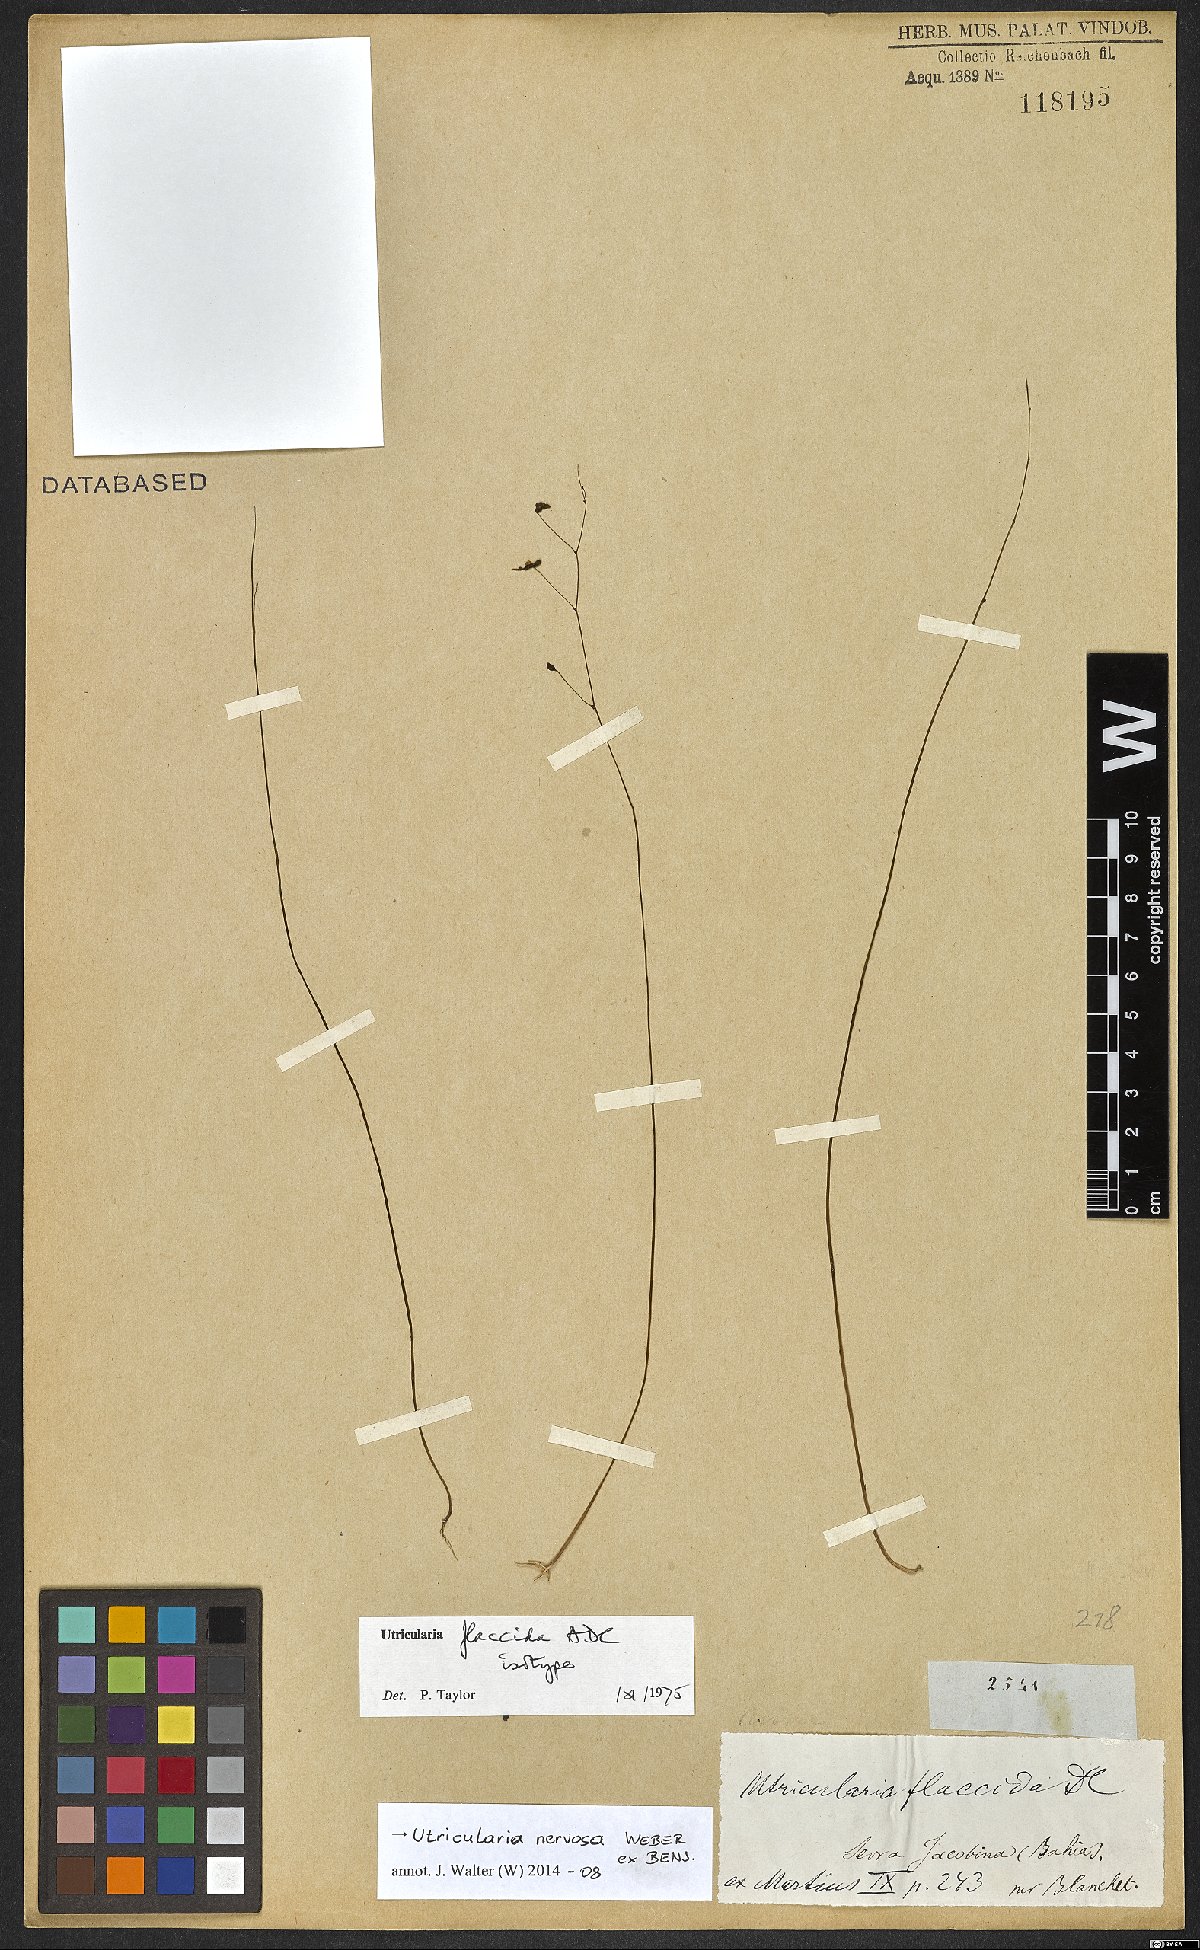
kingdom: Plantae
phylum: Tracheophyta
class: Magnoliopsida
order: Lamiales
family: Lentibulariaceae
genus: Utricularia
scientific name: Utricularia nervosa
